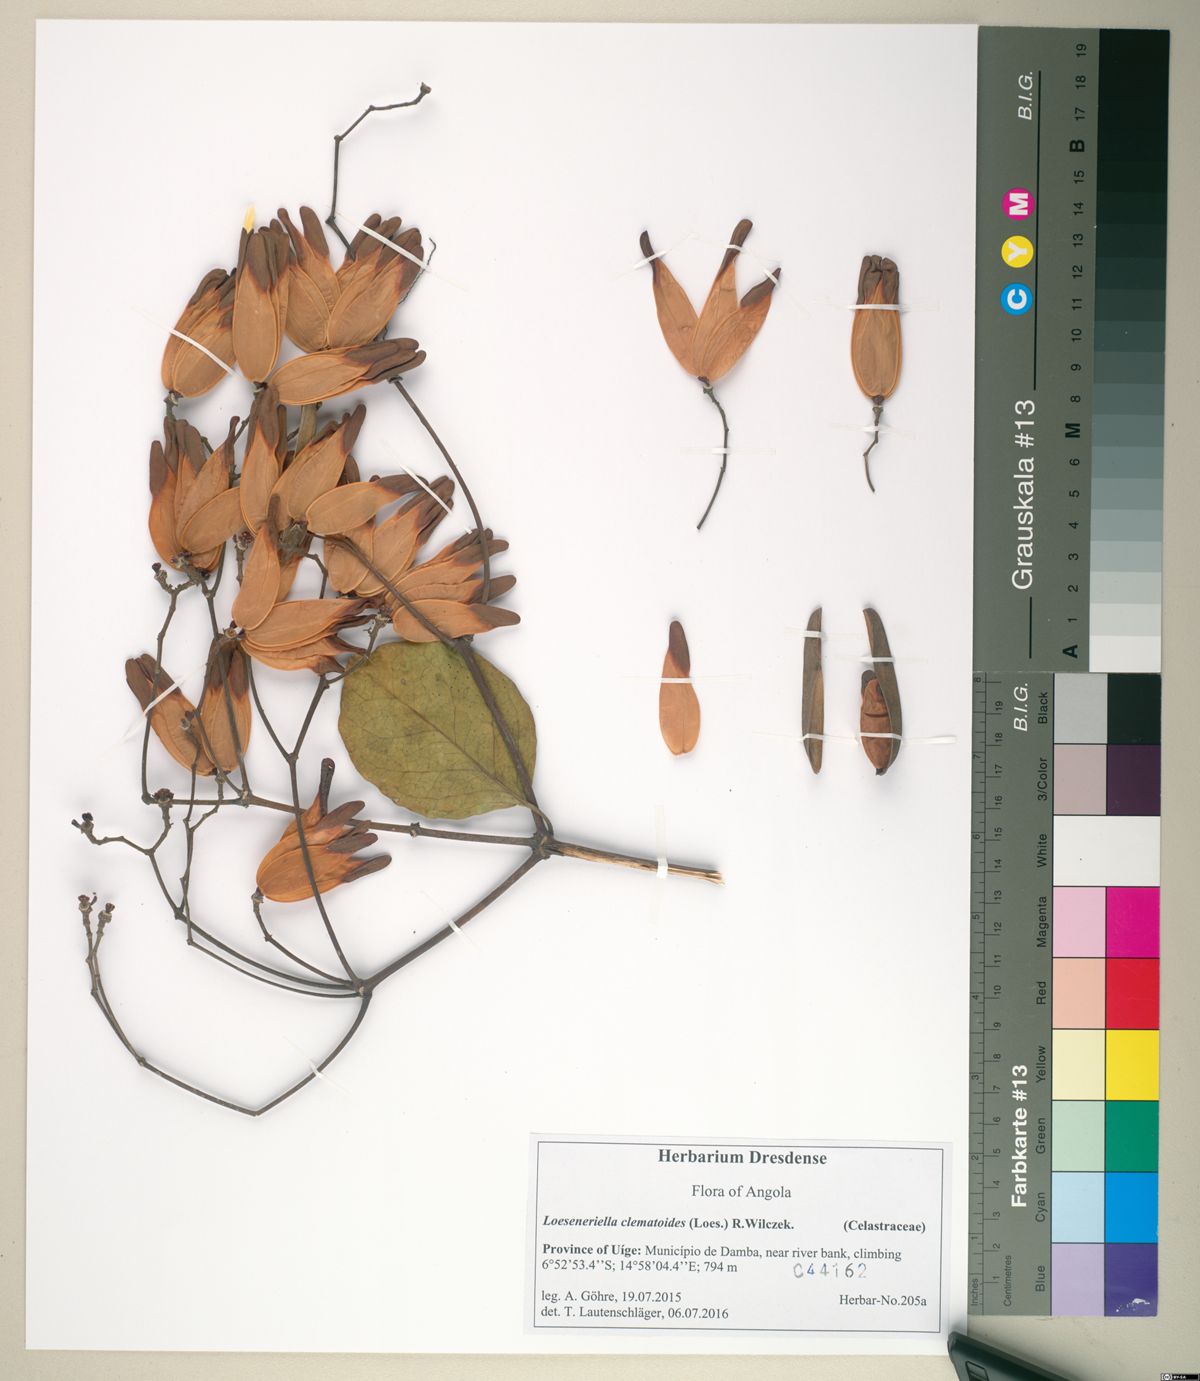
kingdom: Plantae
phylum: Tracheophyta
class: Magnoliopsida
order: Celastrales
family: Celastraceae
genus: Loeseneriella
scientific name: Loeseneriella clematoides
